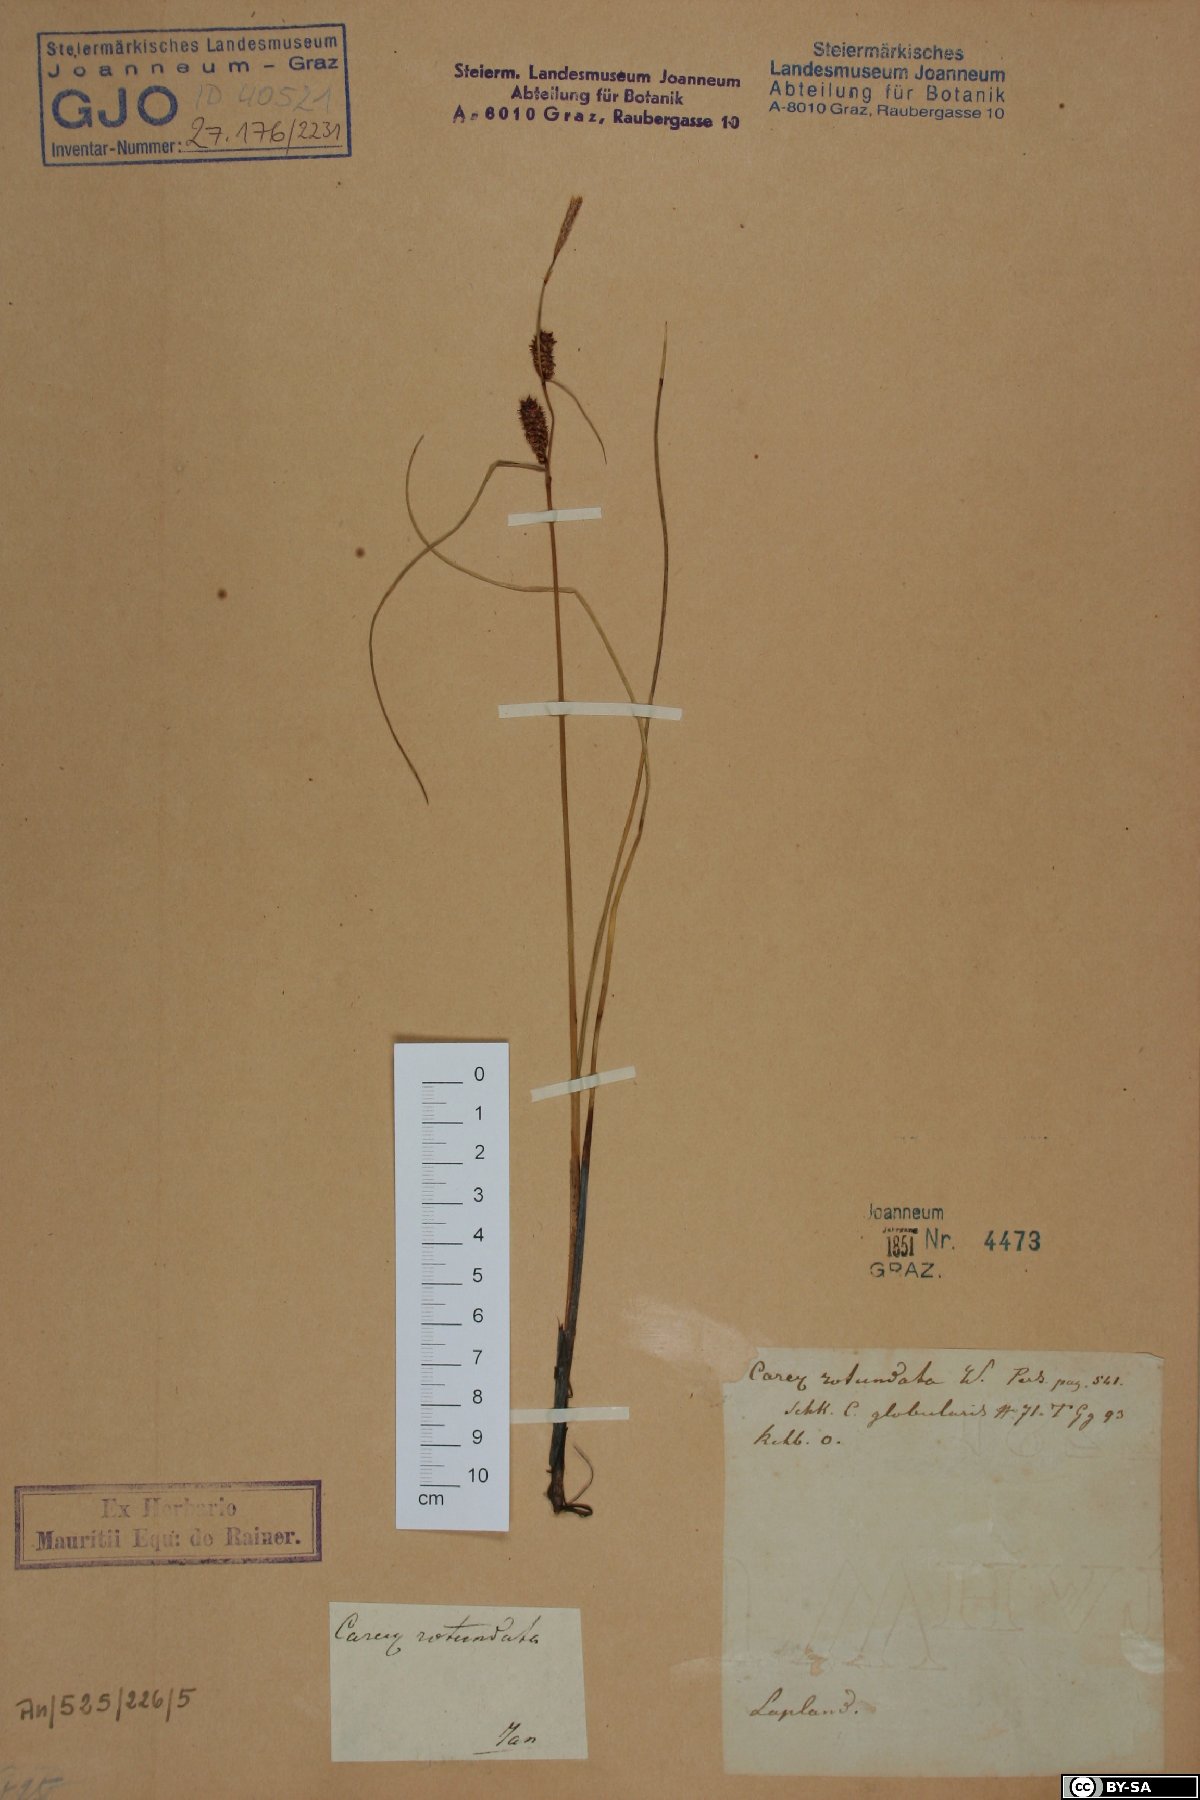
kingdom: Plantae
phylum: Tracheophyta
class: Liliopsida
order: Poales
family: Cyperaceae
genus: Carex
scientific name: Carex rotundata
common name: Round-fruited sedge
